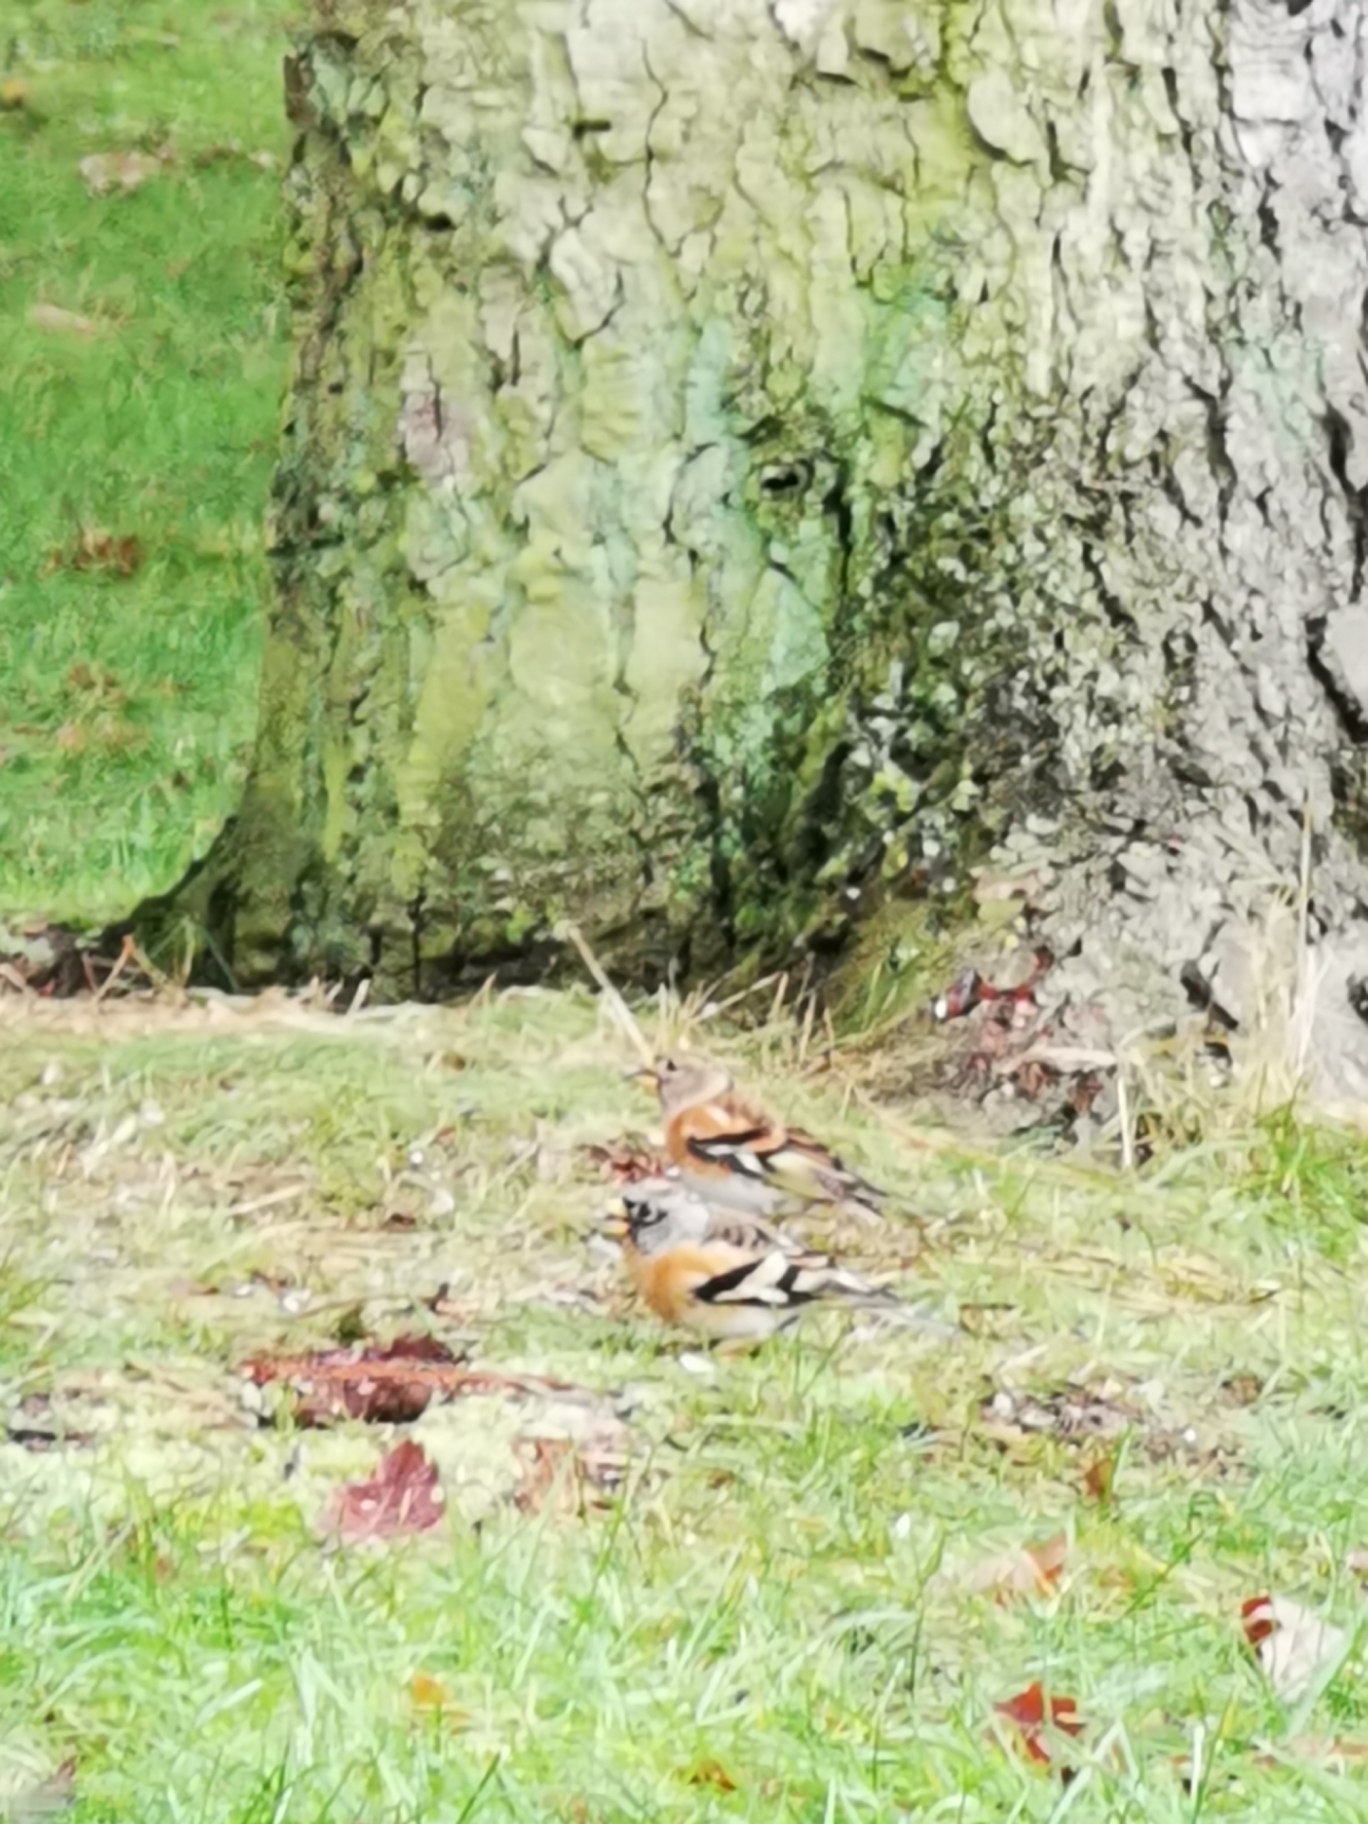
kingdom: Animalia
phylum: Chordata
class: Aves
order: Passeriformes
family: Fringillidae
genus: Fringilla
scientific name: Fringilla montifringilla
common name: Kvækerfinke
